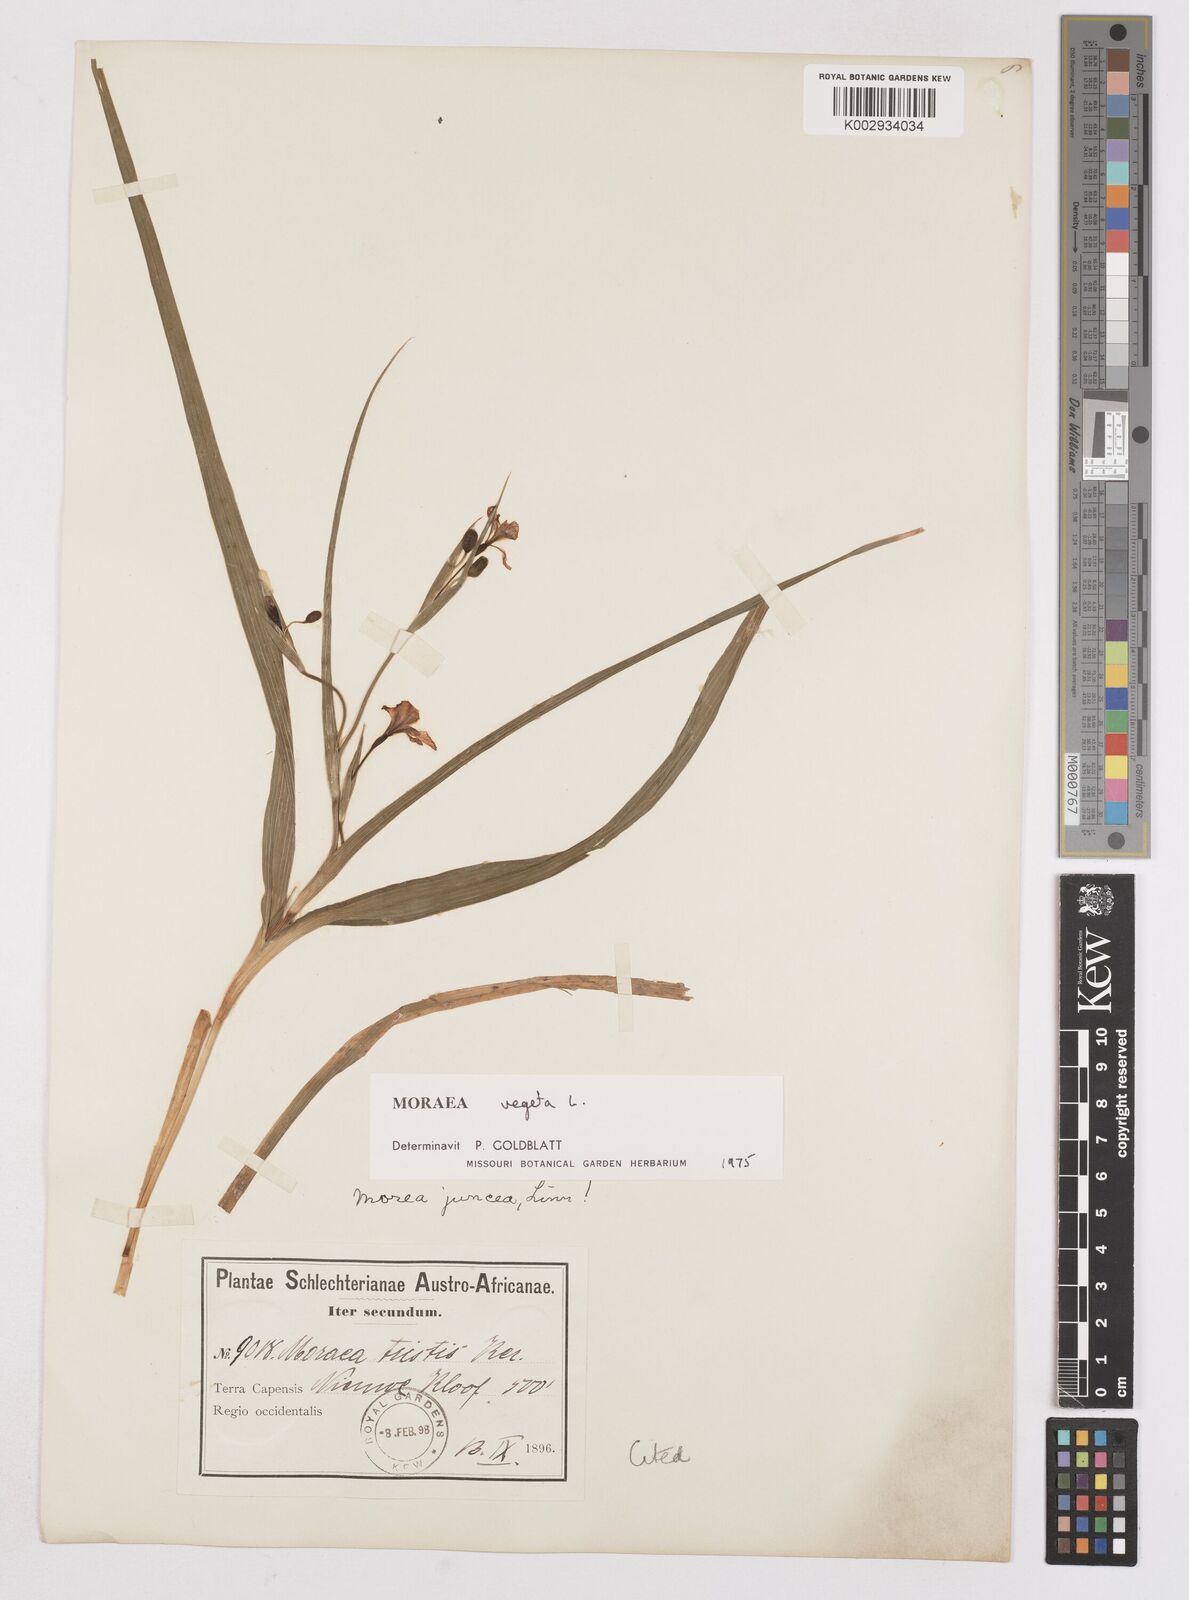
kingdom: Plantae
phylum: Tracheophyta
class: Liliopsida
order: Asparagales
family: Iridaceae
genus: Moraea
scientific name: Moraea vegeta
